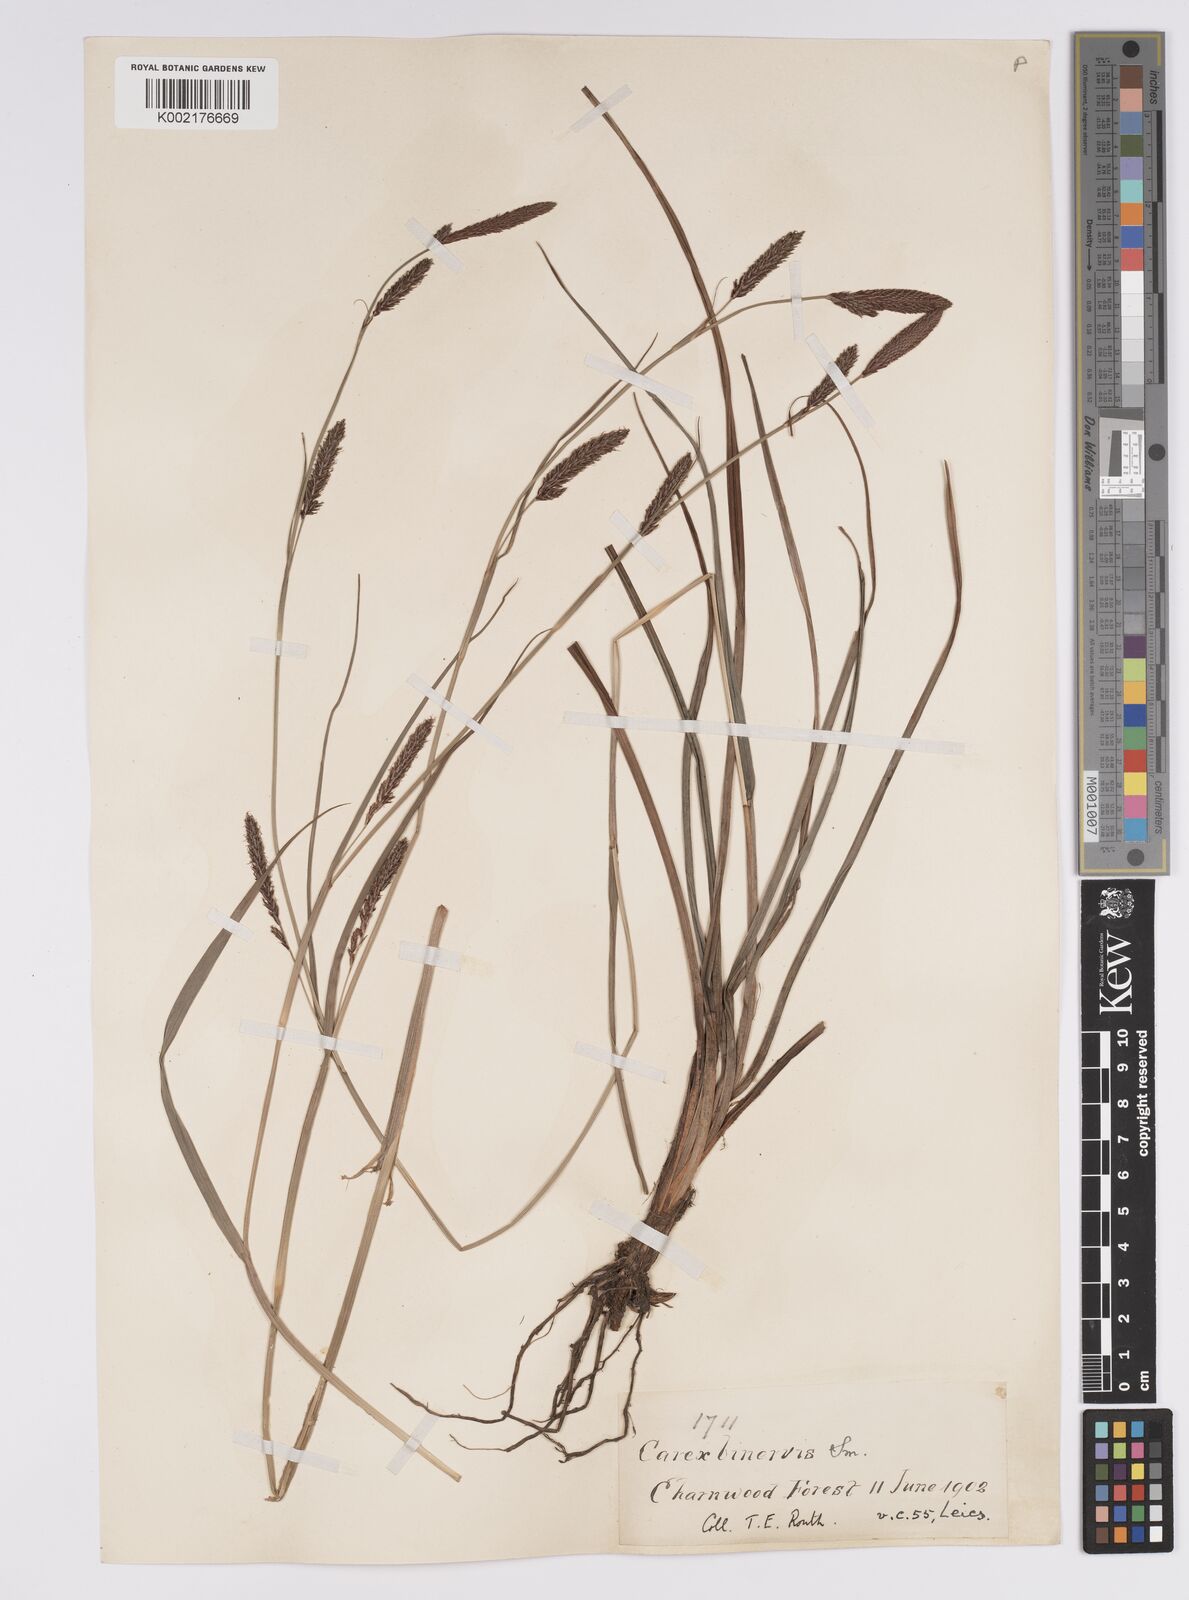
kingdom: Plantae
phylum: Tracheophyta
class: Liliopsida
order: Poales
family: Cyperaceae
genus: Carex
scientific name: Carex binervis
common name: Green-ribbed sedge
